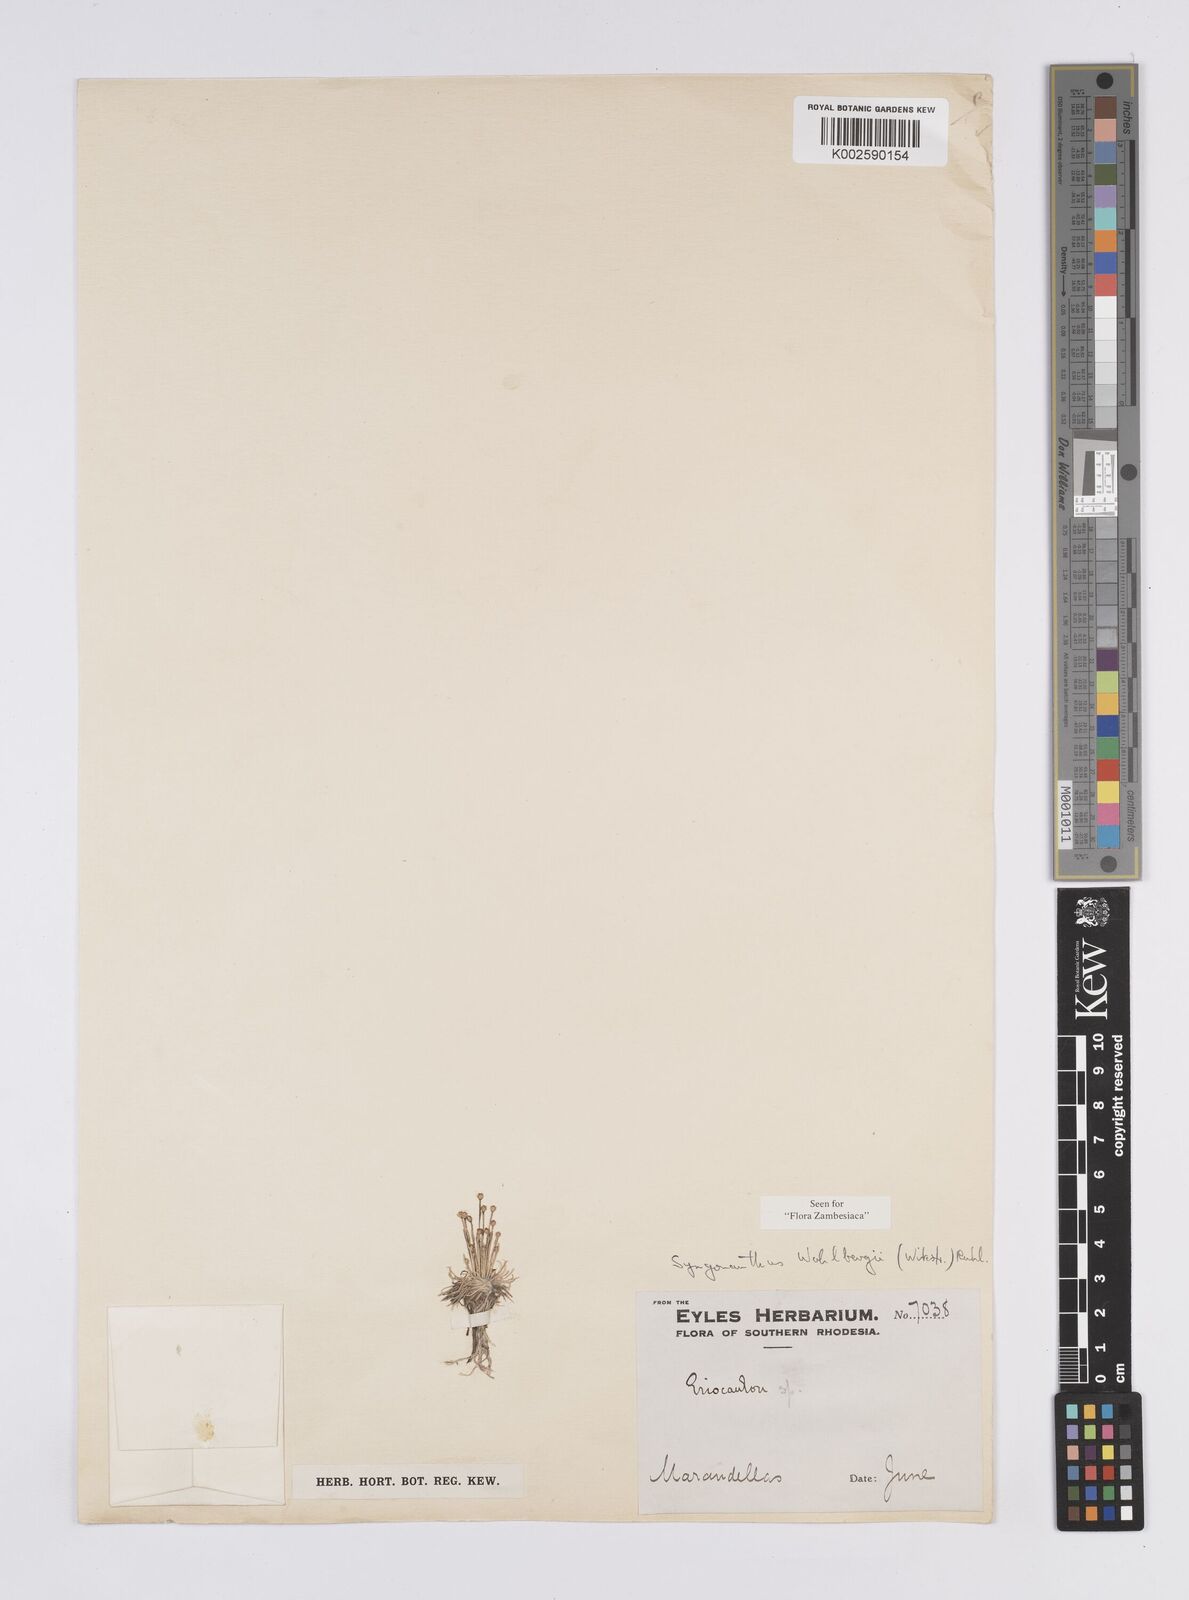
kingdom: Plantae
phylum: Tracheophyta
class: Liliopsida
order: Poales
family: Eriocaulaceae
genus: Syngonanthus
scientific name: Syngonanthus wahlbergii
